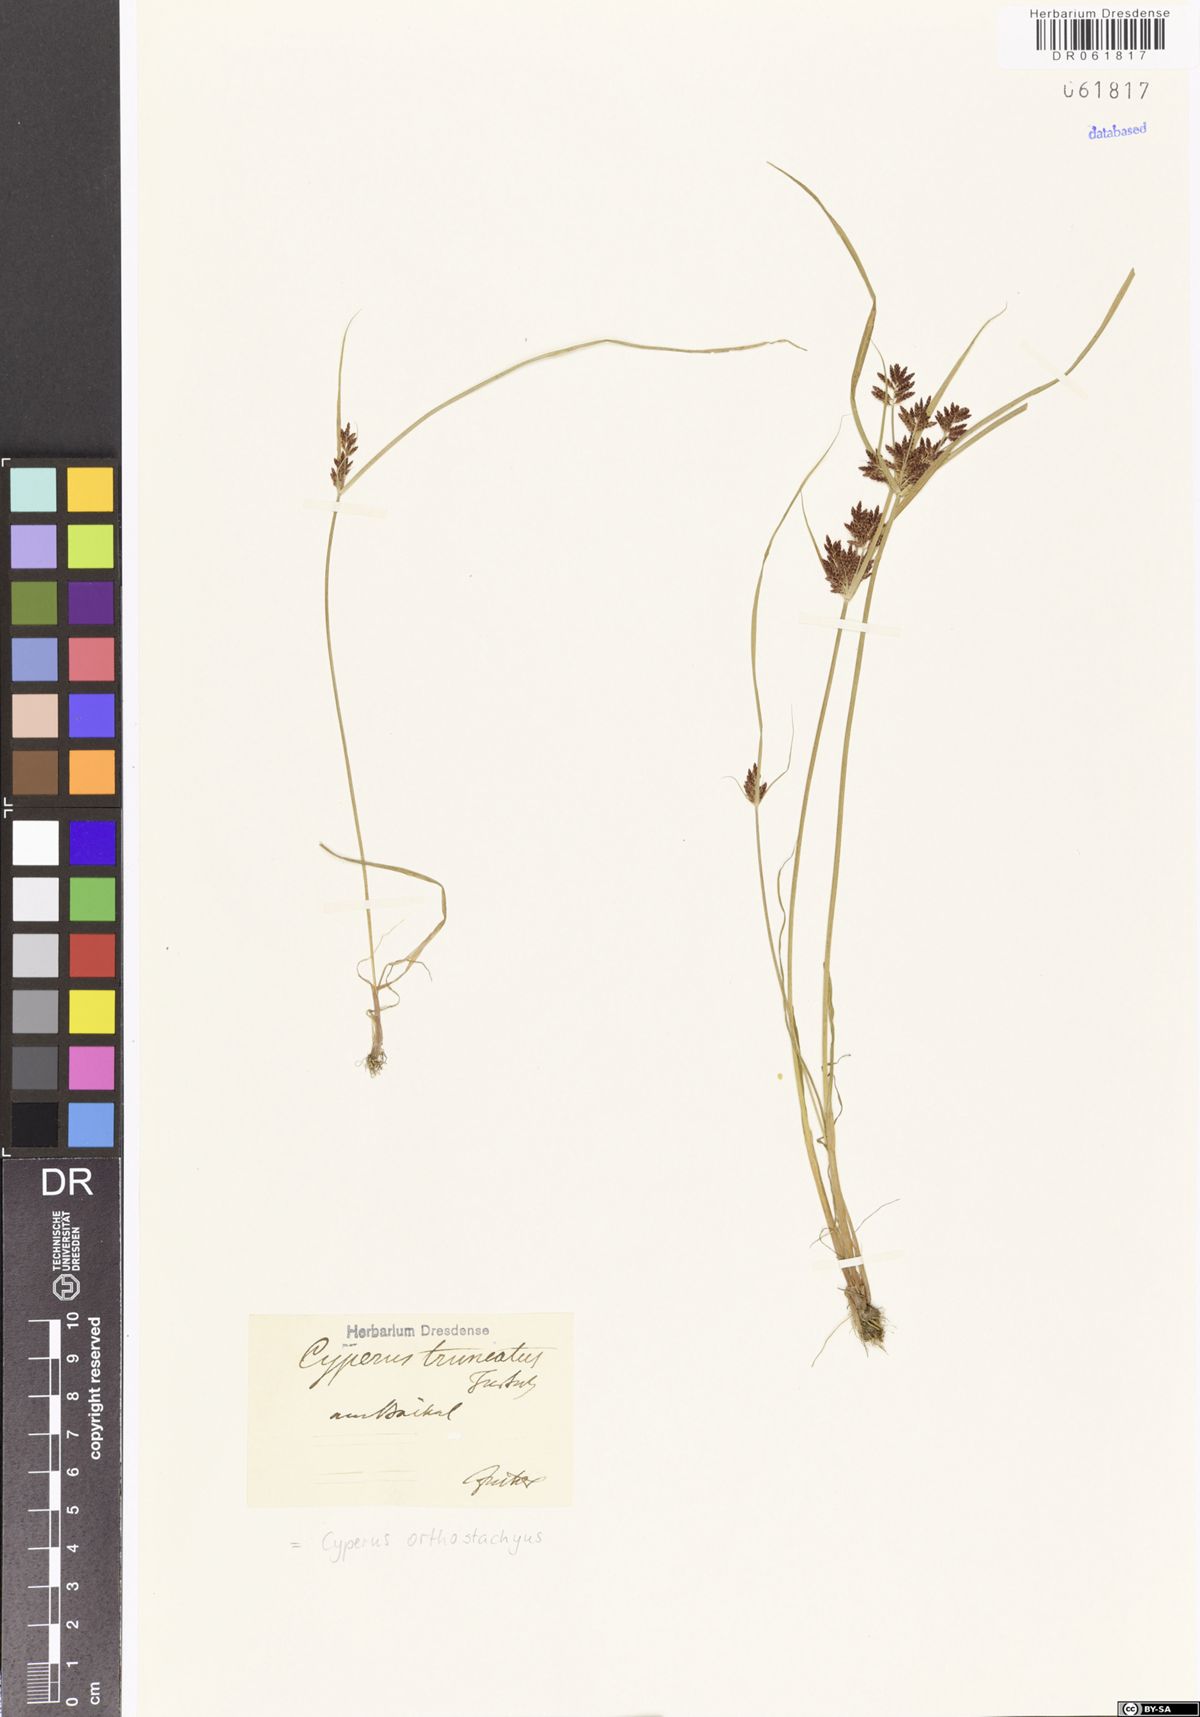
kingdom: Plantae
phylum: Tracheophyta
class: Liliopsida
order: Poales
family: Cyperaceae
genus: Cyperus
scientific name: Cyperus orthostachyus
